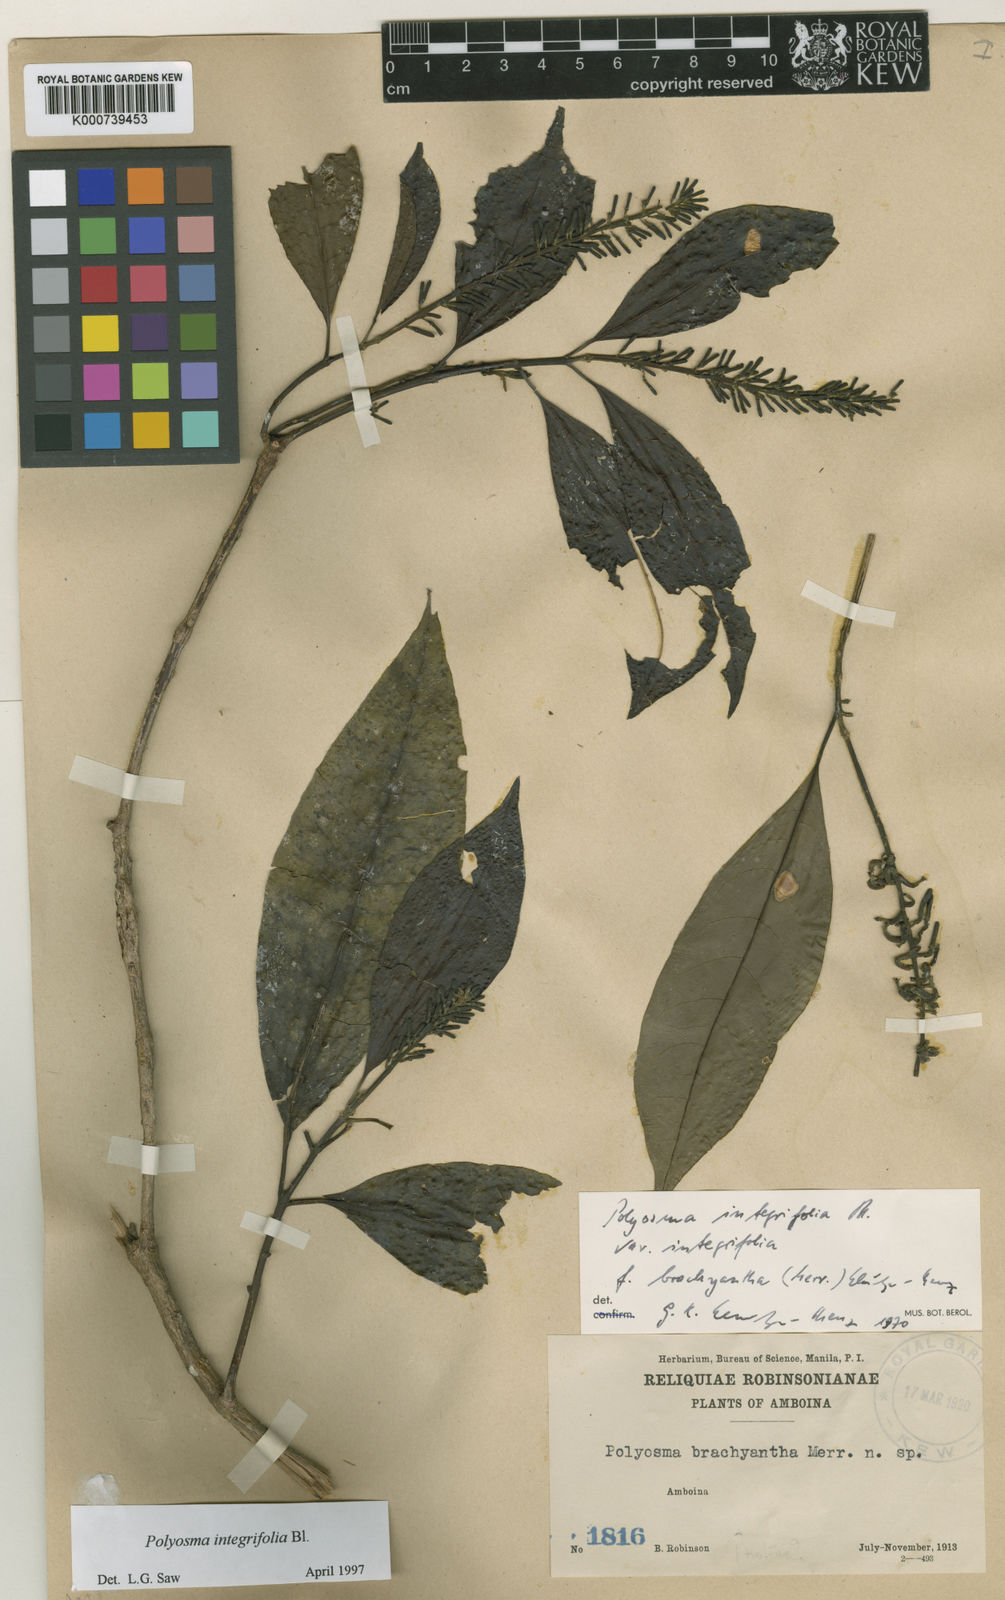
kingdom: Plantae
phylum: Tracheophyta
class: Magnoliopsida
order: Escalloniales
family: Escalloniaceae
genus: Polyosma
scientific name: Polyosma integrifolia
